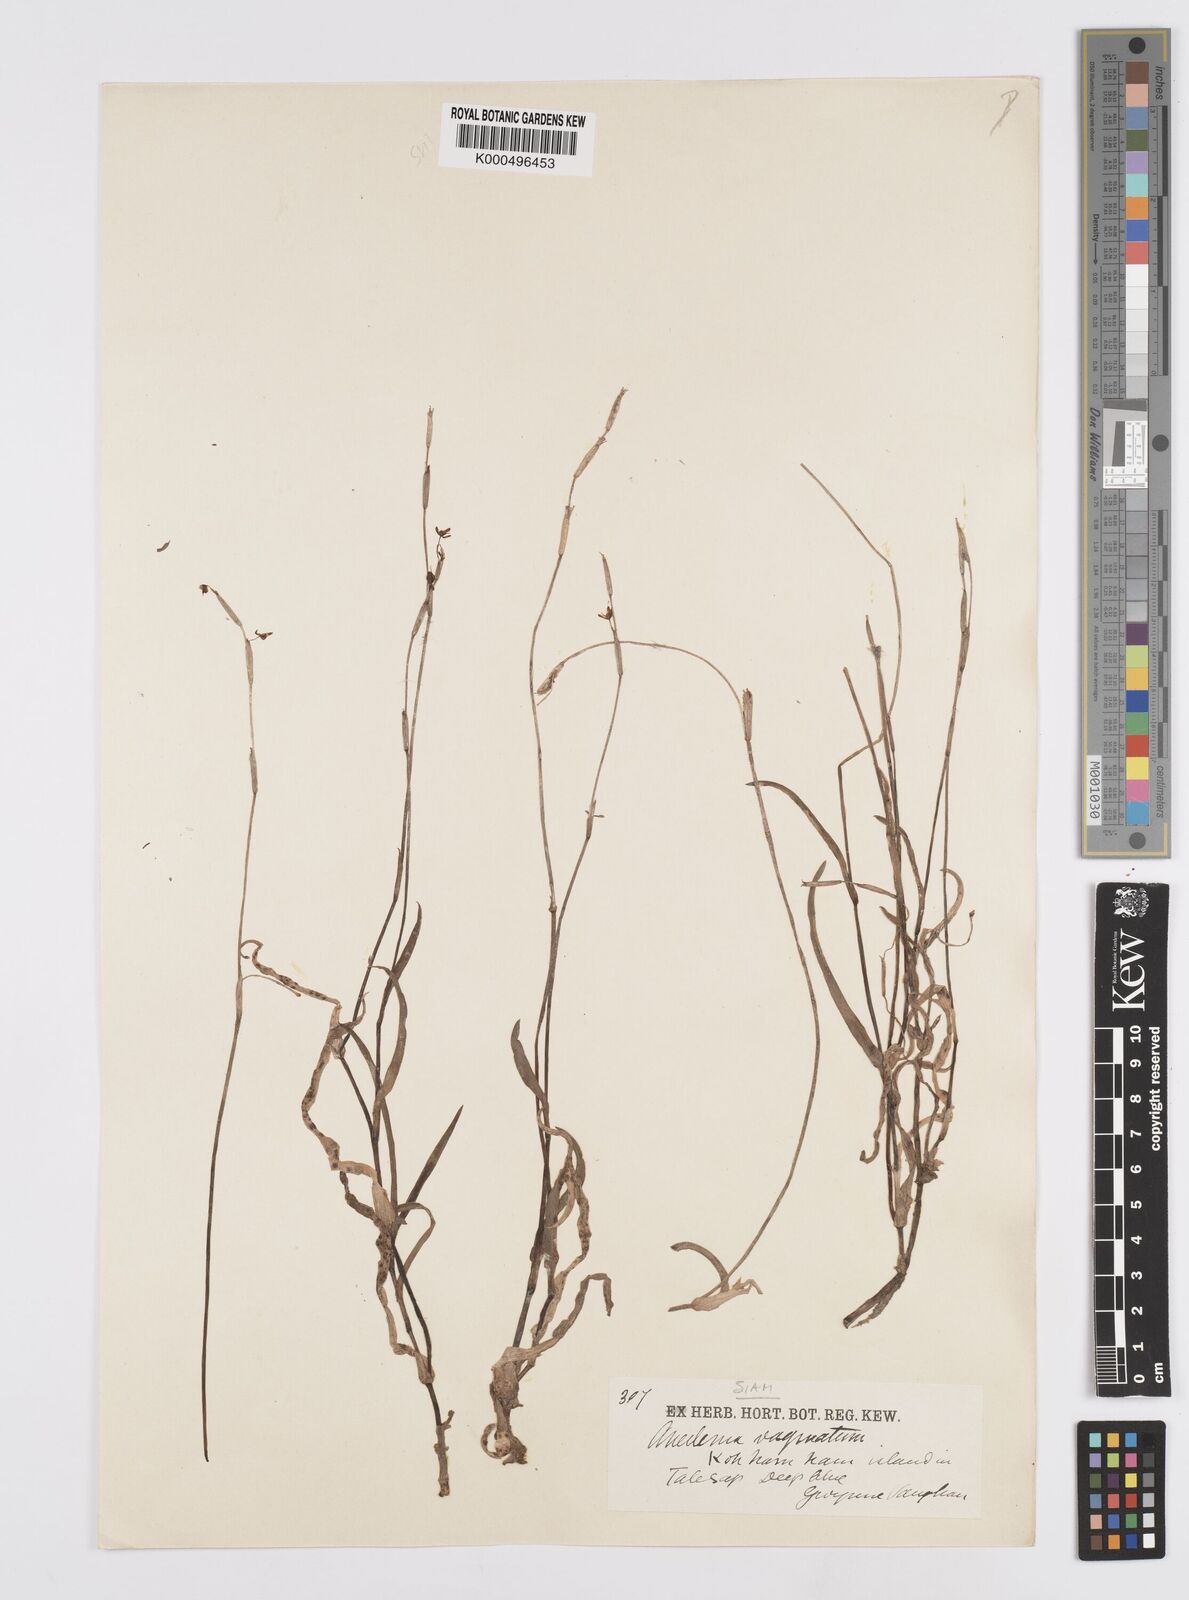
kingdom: Plantae
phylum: Tracheophyta
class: Liliopsida
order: Commelinales
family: Commelinaceae
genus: Murdannia
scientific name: Murdannia
